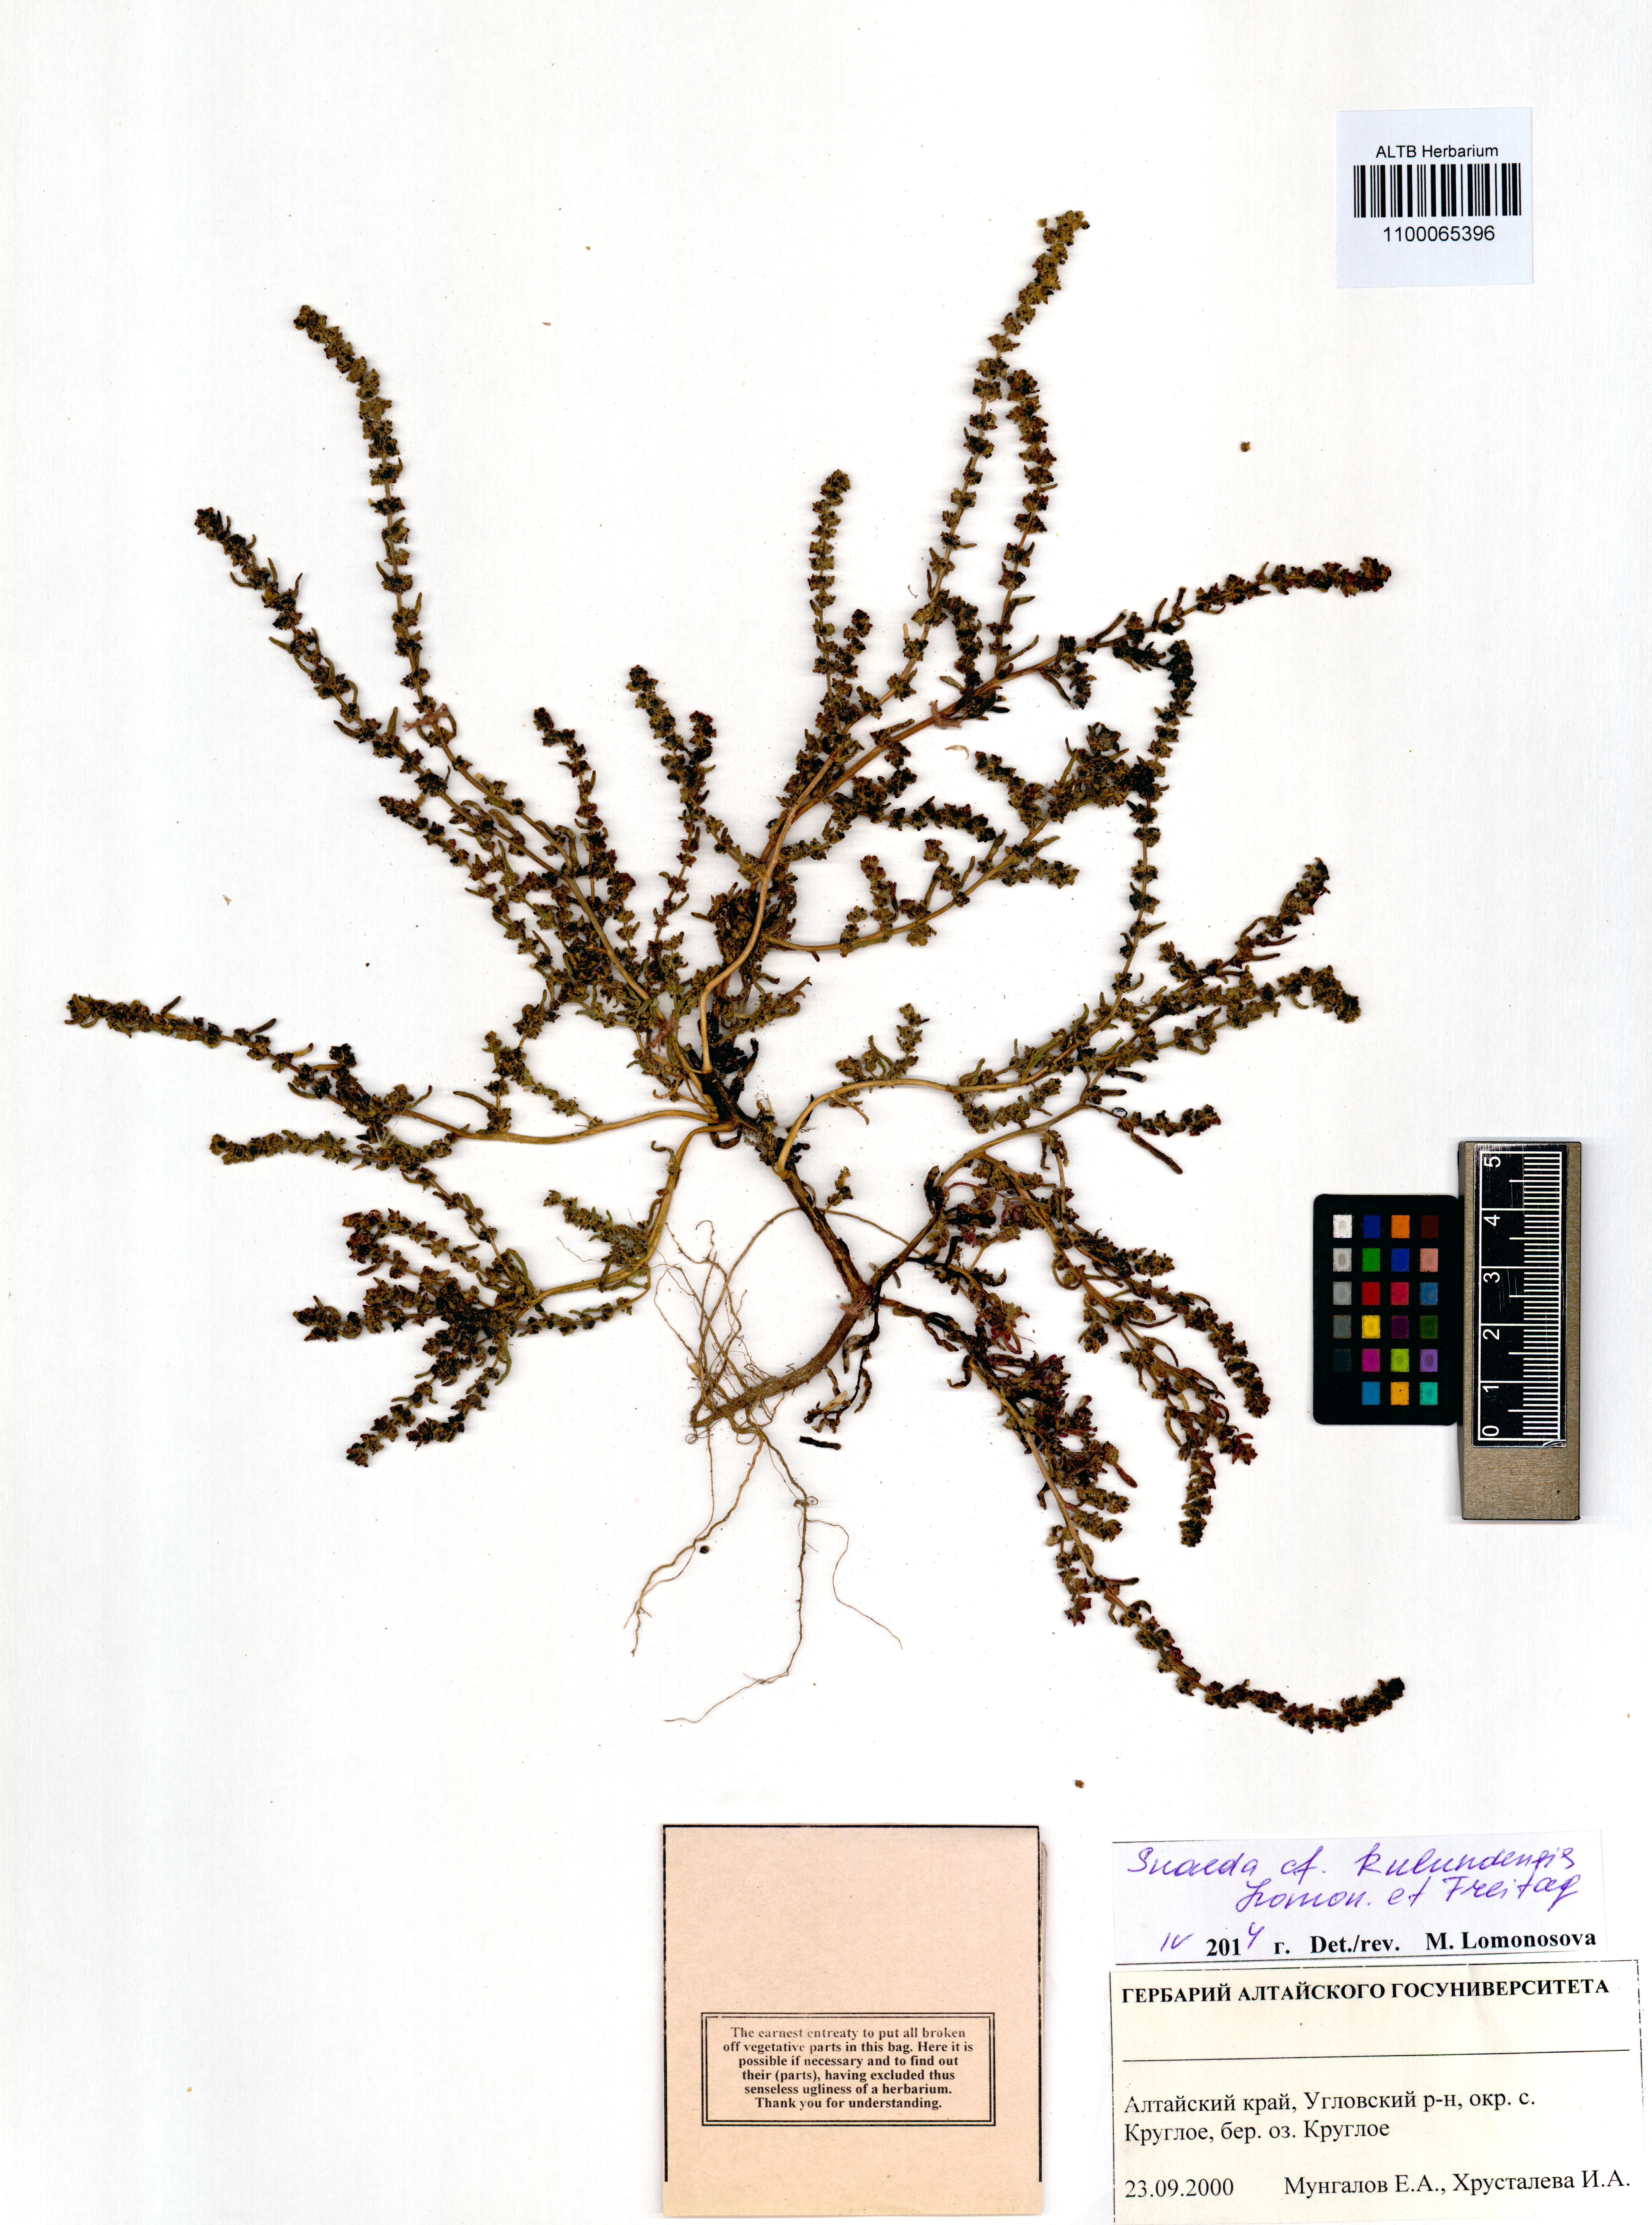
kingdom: Plantae
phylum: Tracheophyta
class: Magnoliopsida
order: Caryophyllales
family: Amaranthaceae
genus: Suaeda
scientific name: Suaeda kulundensis
